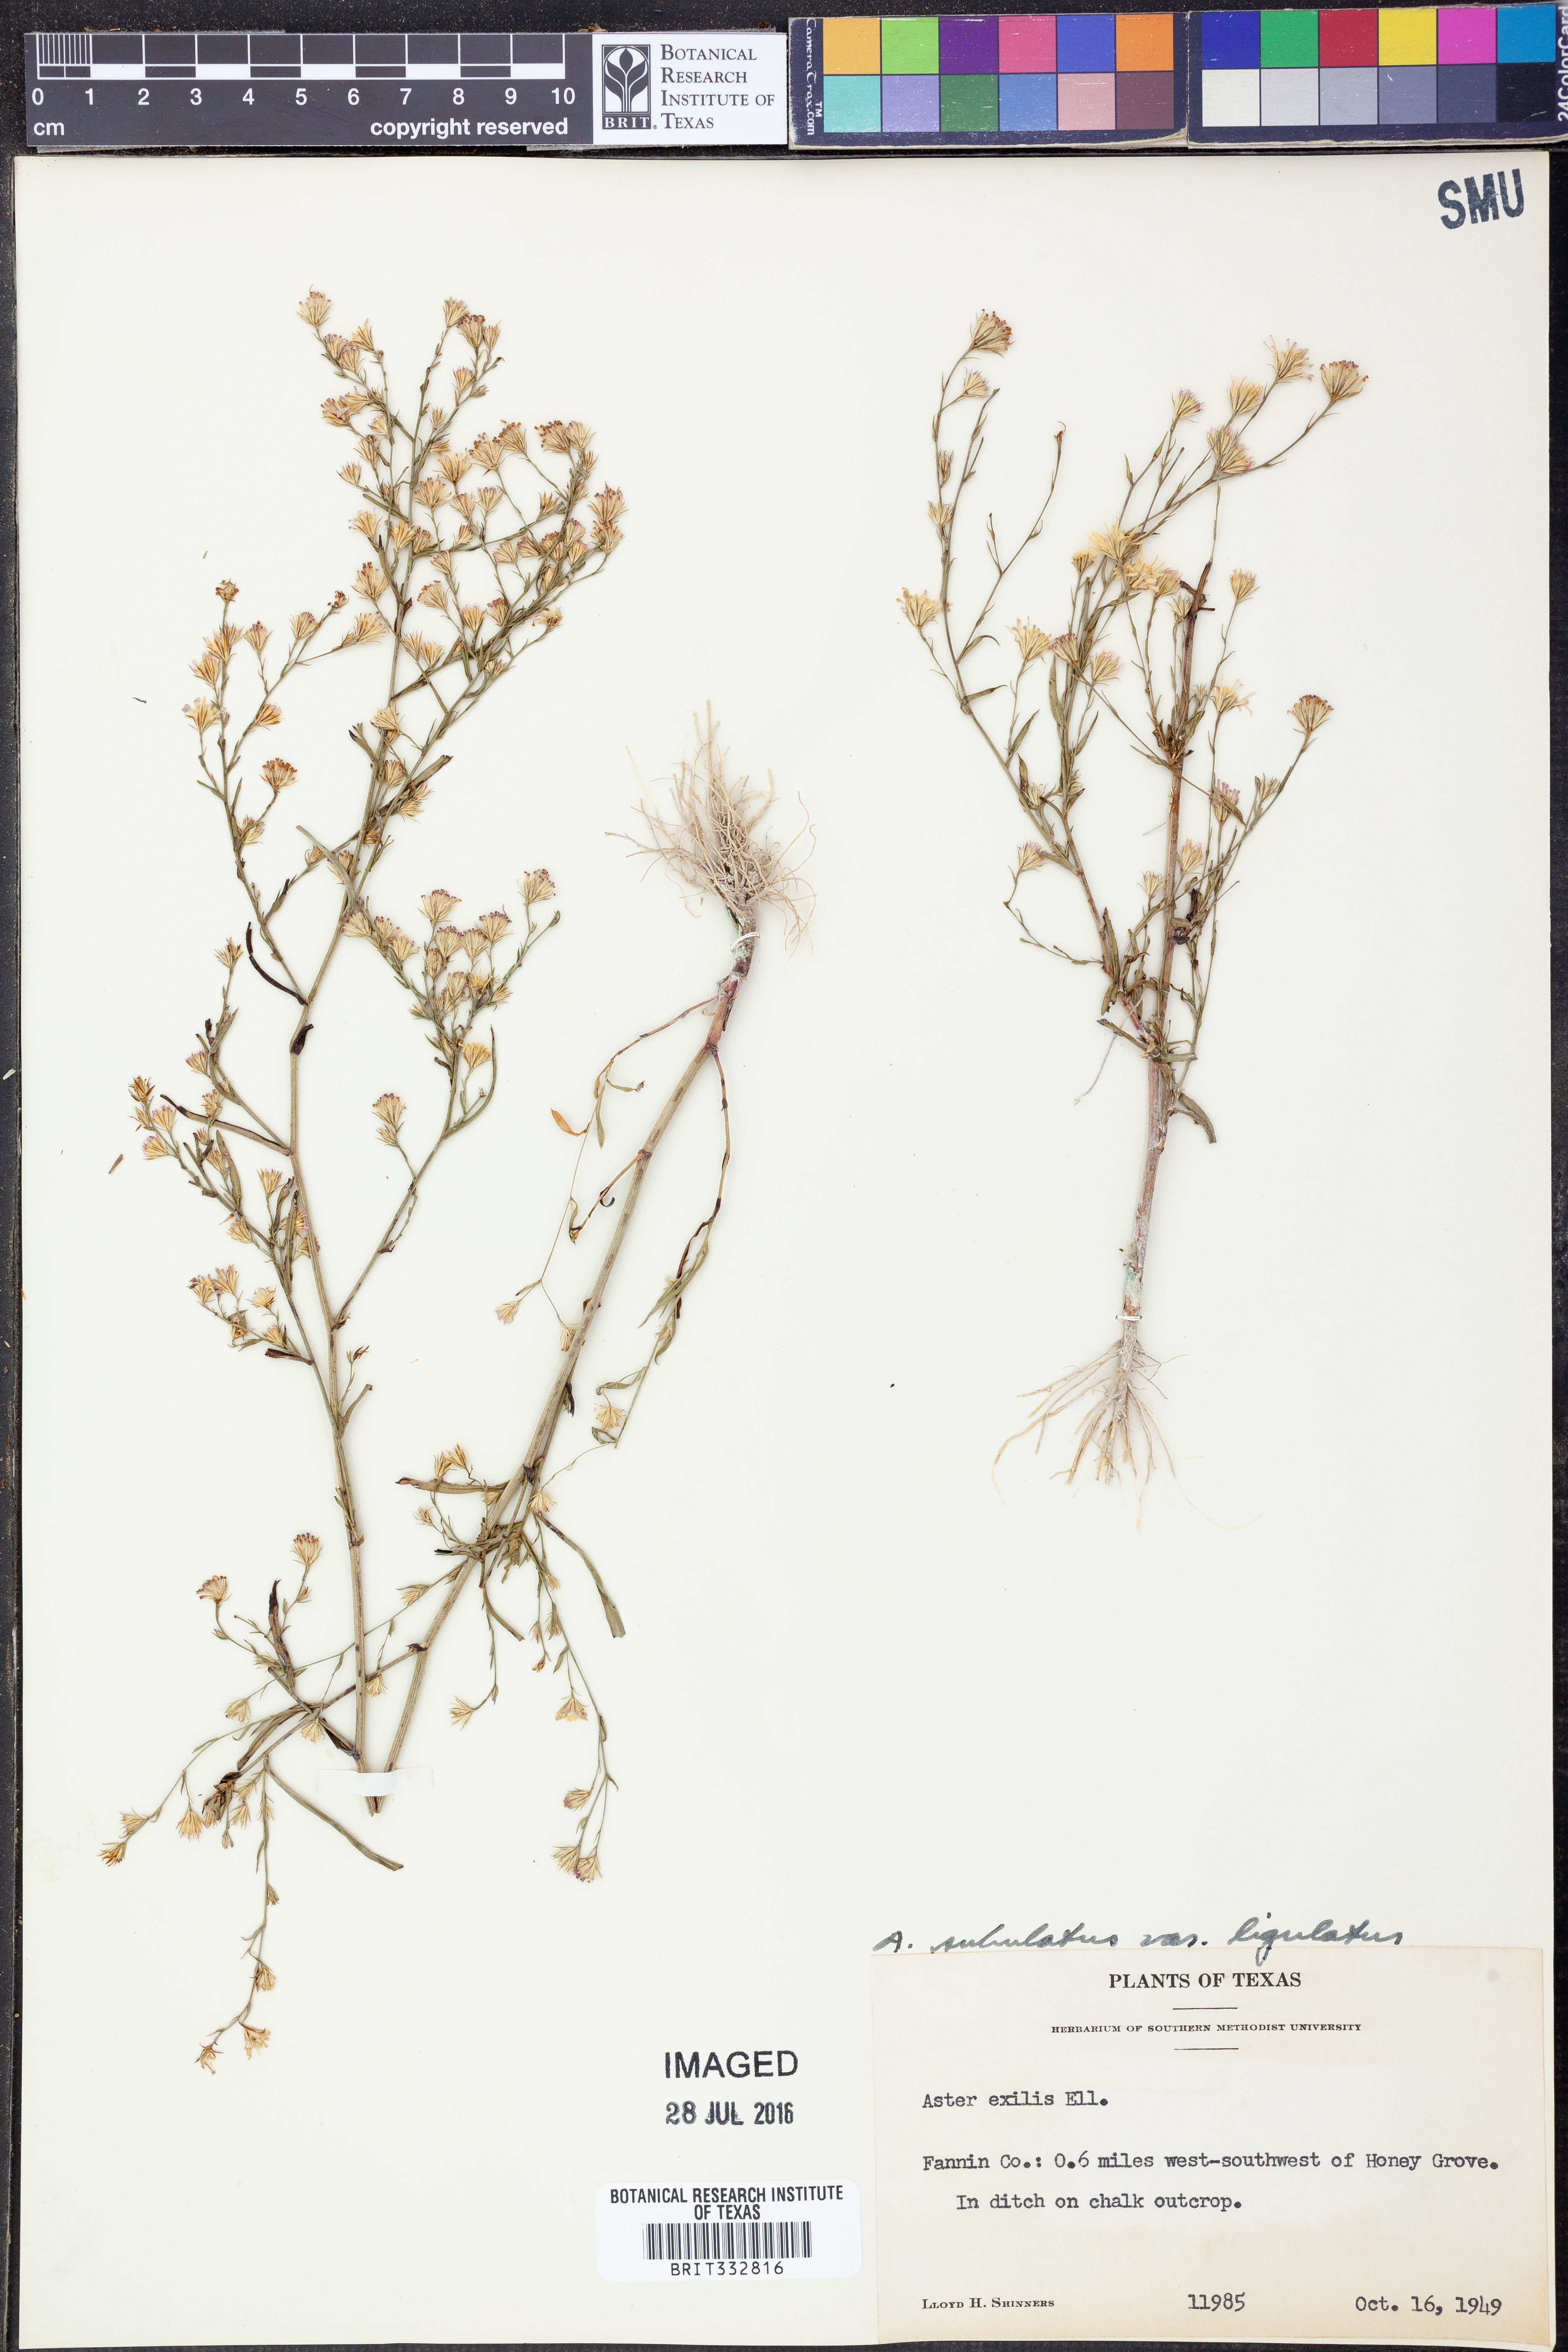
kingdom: Plantae
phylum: Tracheophyta
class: Magnoliopsida
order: Asterales
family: Asteraceae
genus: Symphyotrichum
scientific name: Symphyotrichum divaricatum
